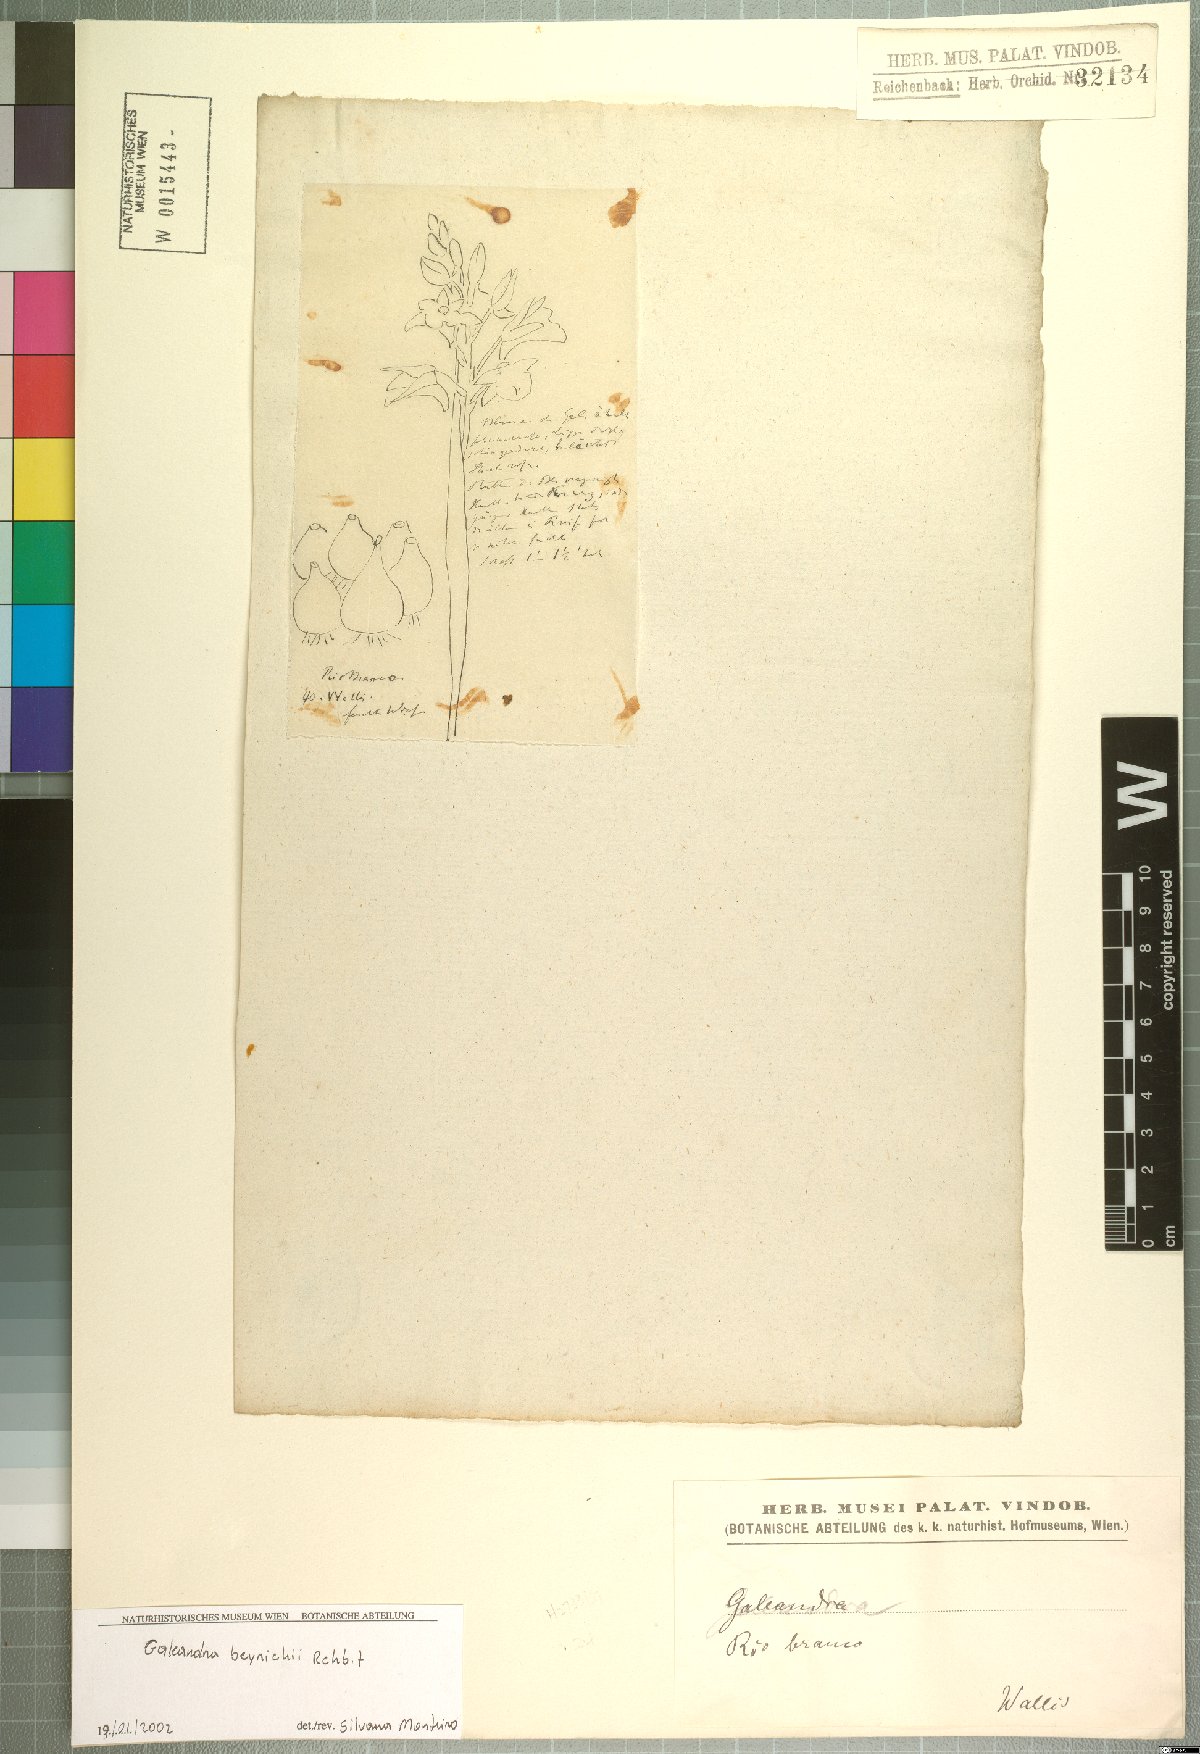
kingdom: Plantae
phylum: Tracheophyta
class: Liliopsida
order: Asparagales
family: Orchidaceae
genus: Galeandra
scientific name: Galeandra beyrichii
